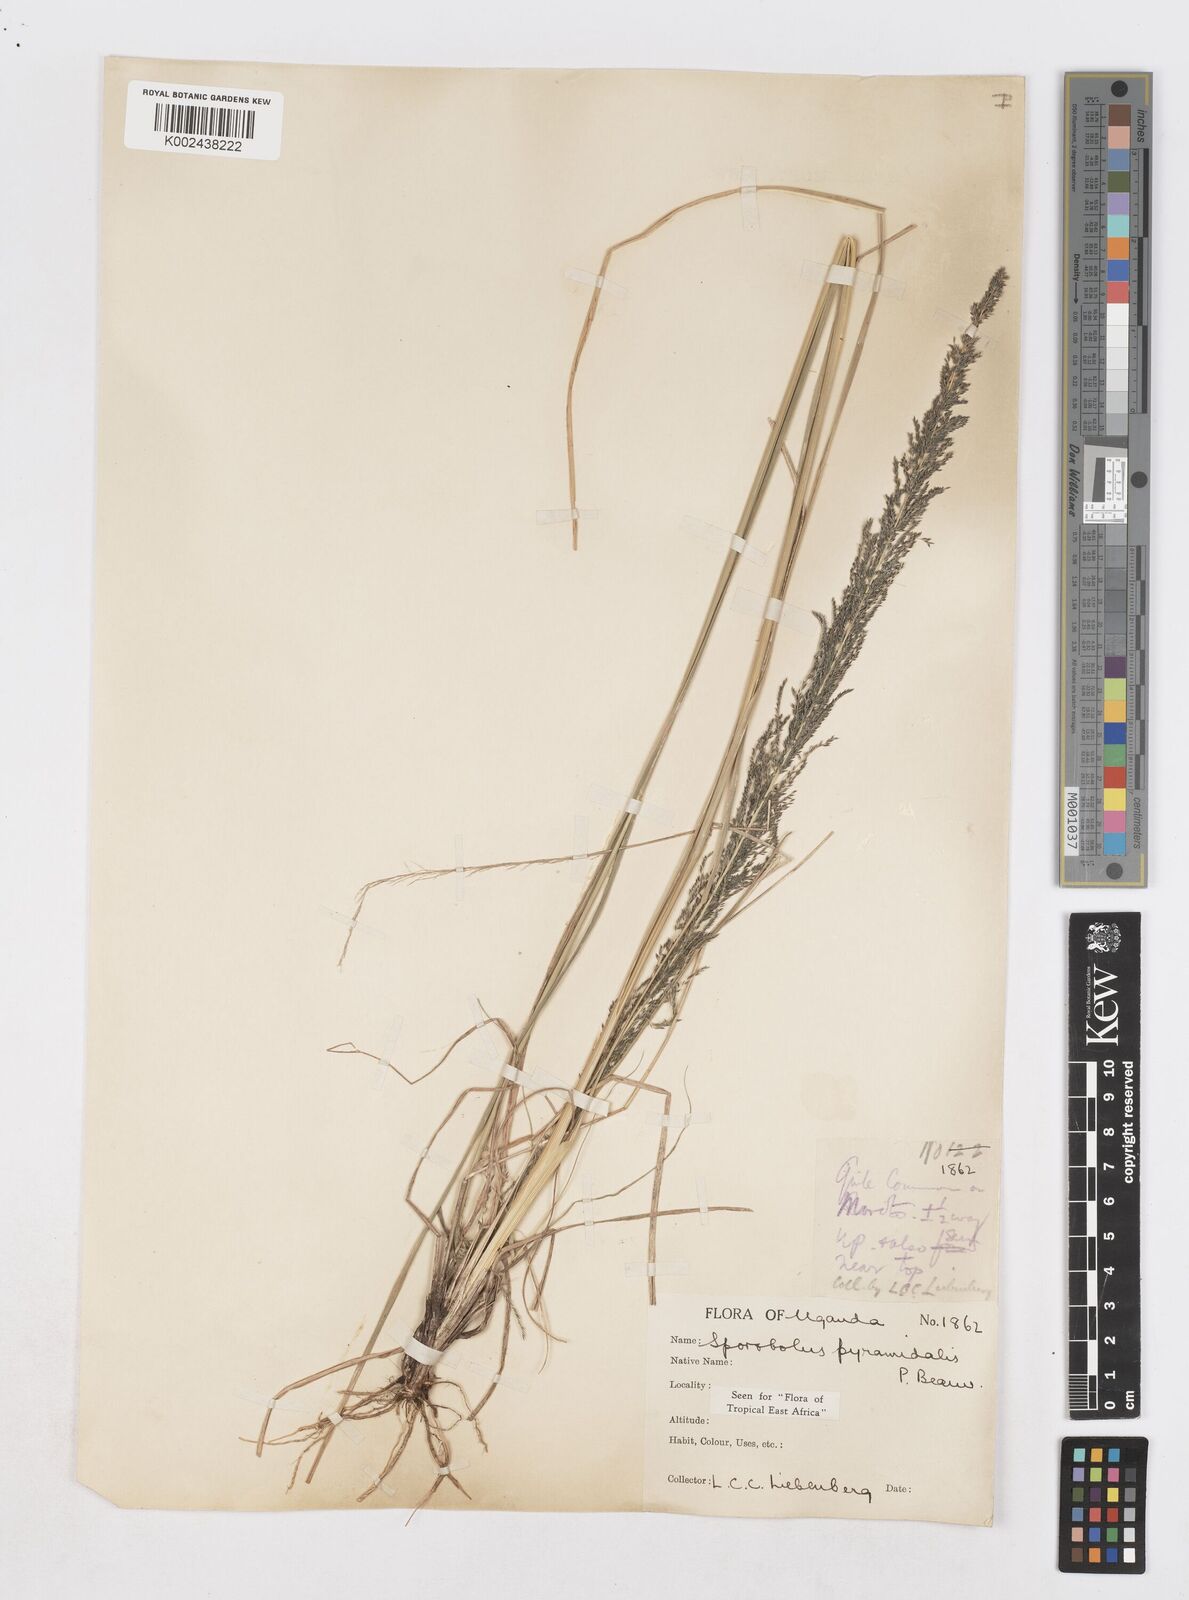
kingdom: Plantae
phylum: Tracheophyta
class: Liliopsida
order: Poales
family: Poaceae
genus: Sporobolus
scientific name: Sporobolus pyramidalis
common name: West indian dropseed
